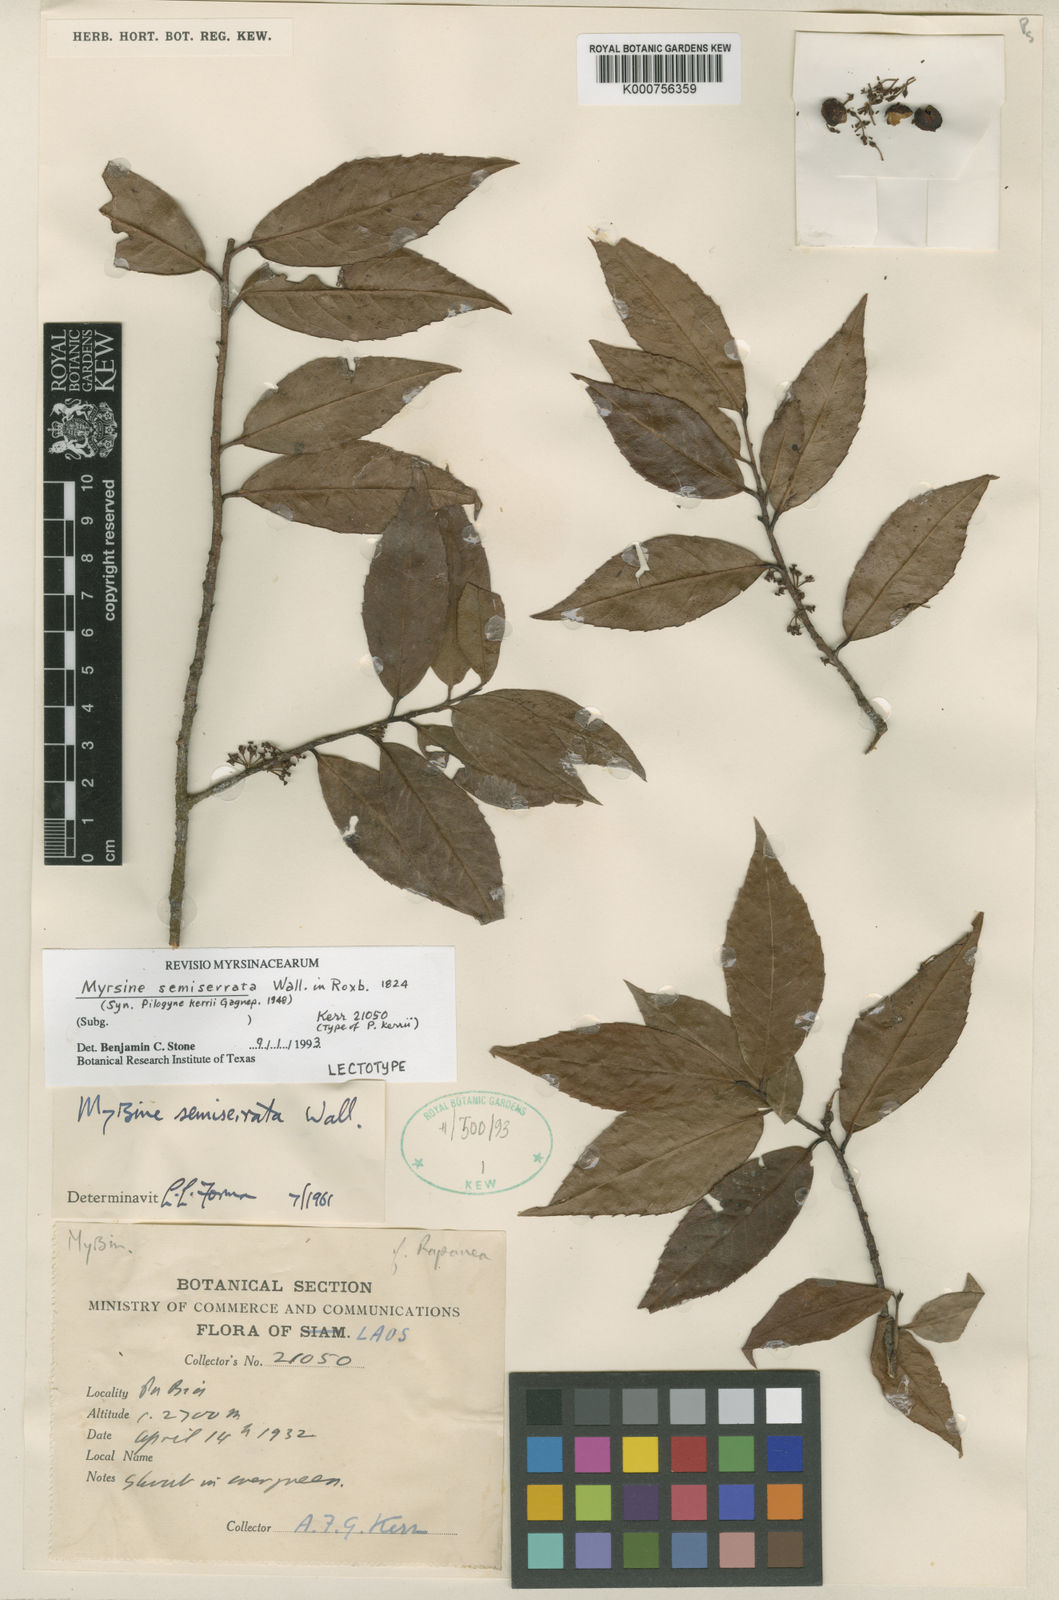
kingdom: Plantae
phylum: Tracheophyta
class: Magnoliopsida
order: Ericales
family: Primulaceae
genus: Myrsine
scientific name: Myrsine semiserrata
